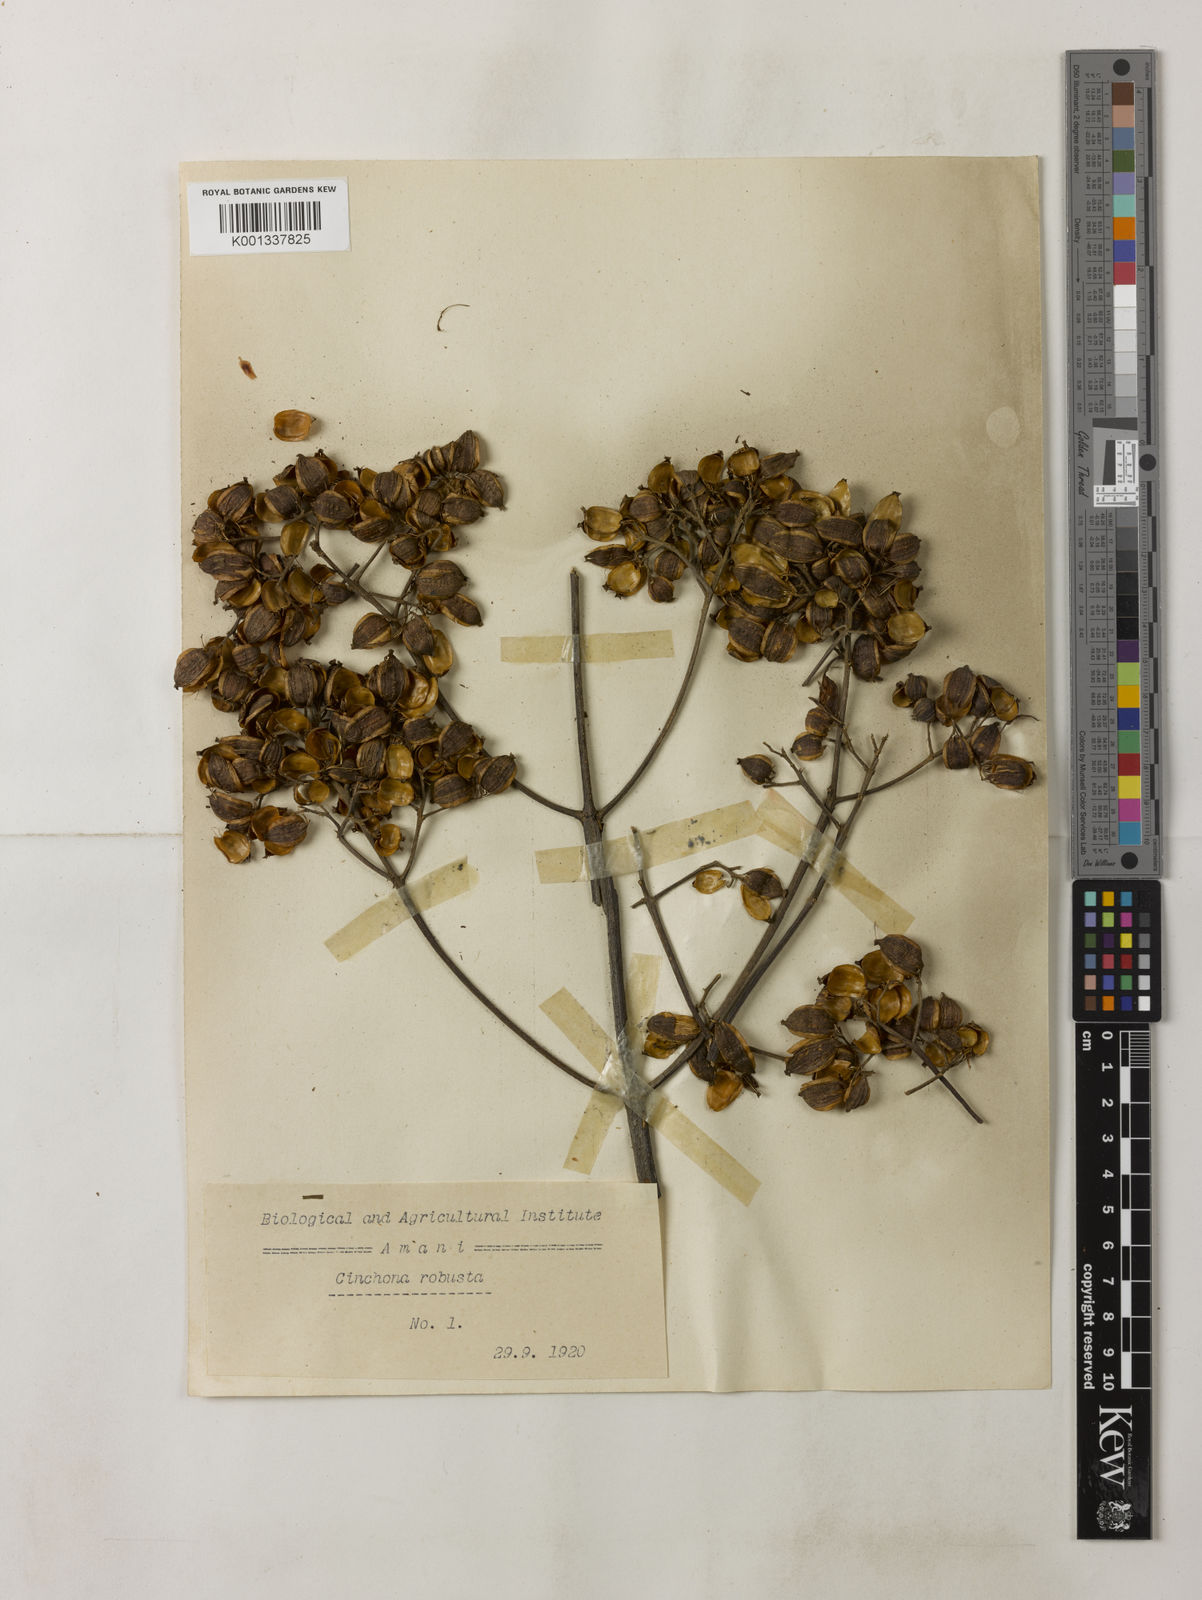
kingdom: Plantae
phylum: Tracheophyta
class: Magnoliopsida
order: Gentianales
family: Rubiaceae
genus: Cinchona
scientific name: Cinchona officinalis
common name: Lojabark
